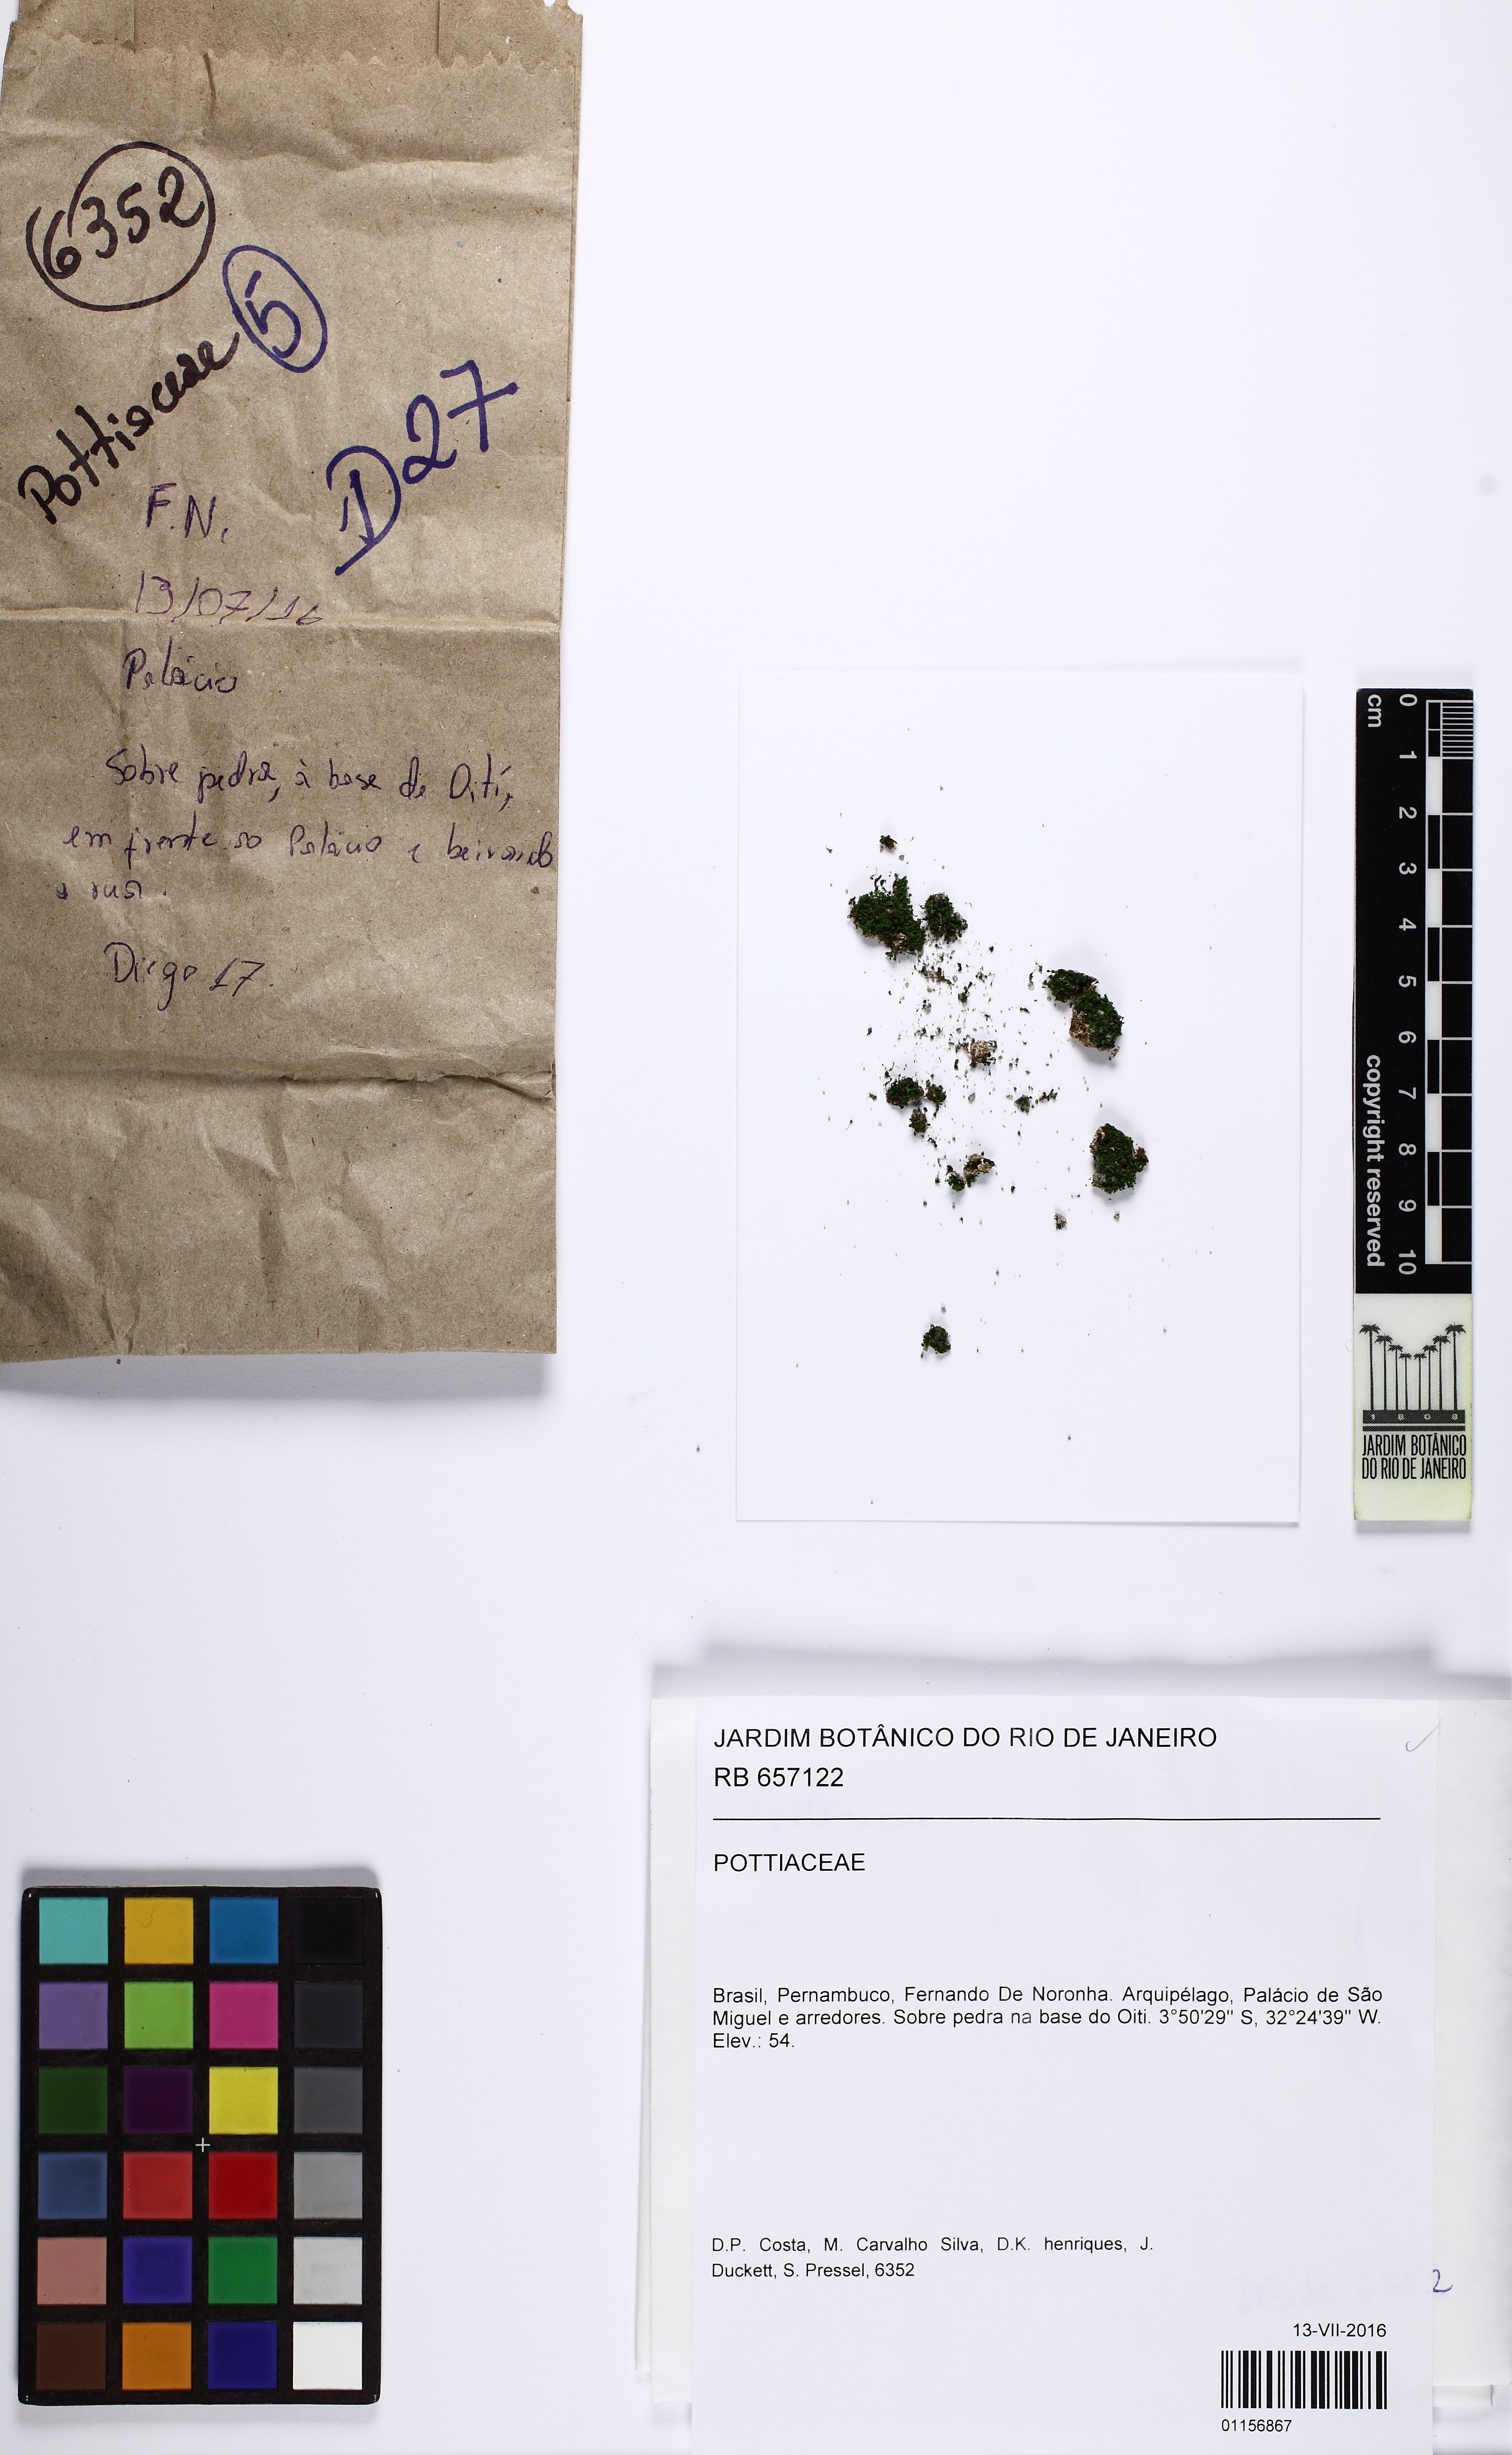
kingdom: Plantae
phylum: Bryophyta
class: Bryopsida
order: Pottiales
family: Pottiaceae
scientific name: Pottiaceae
